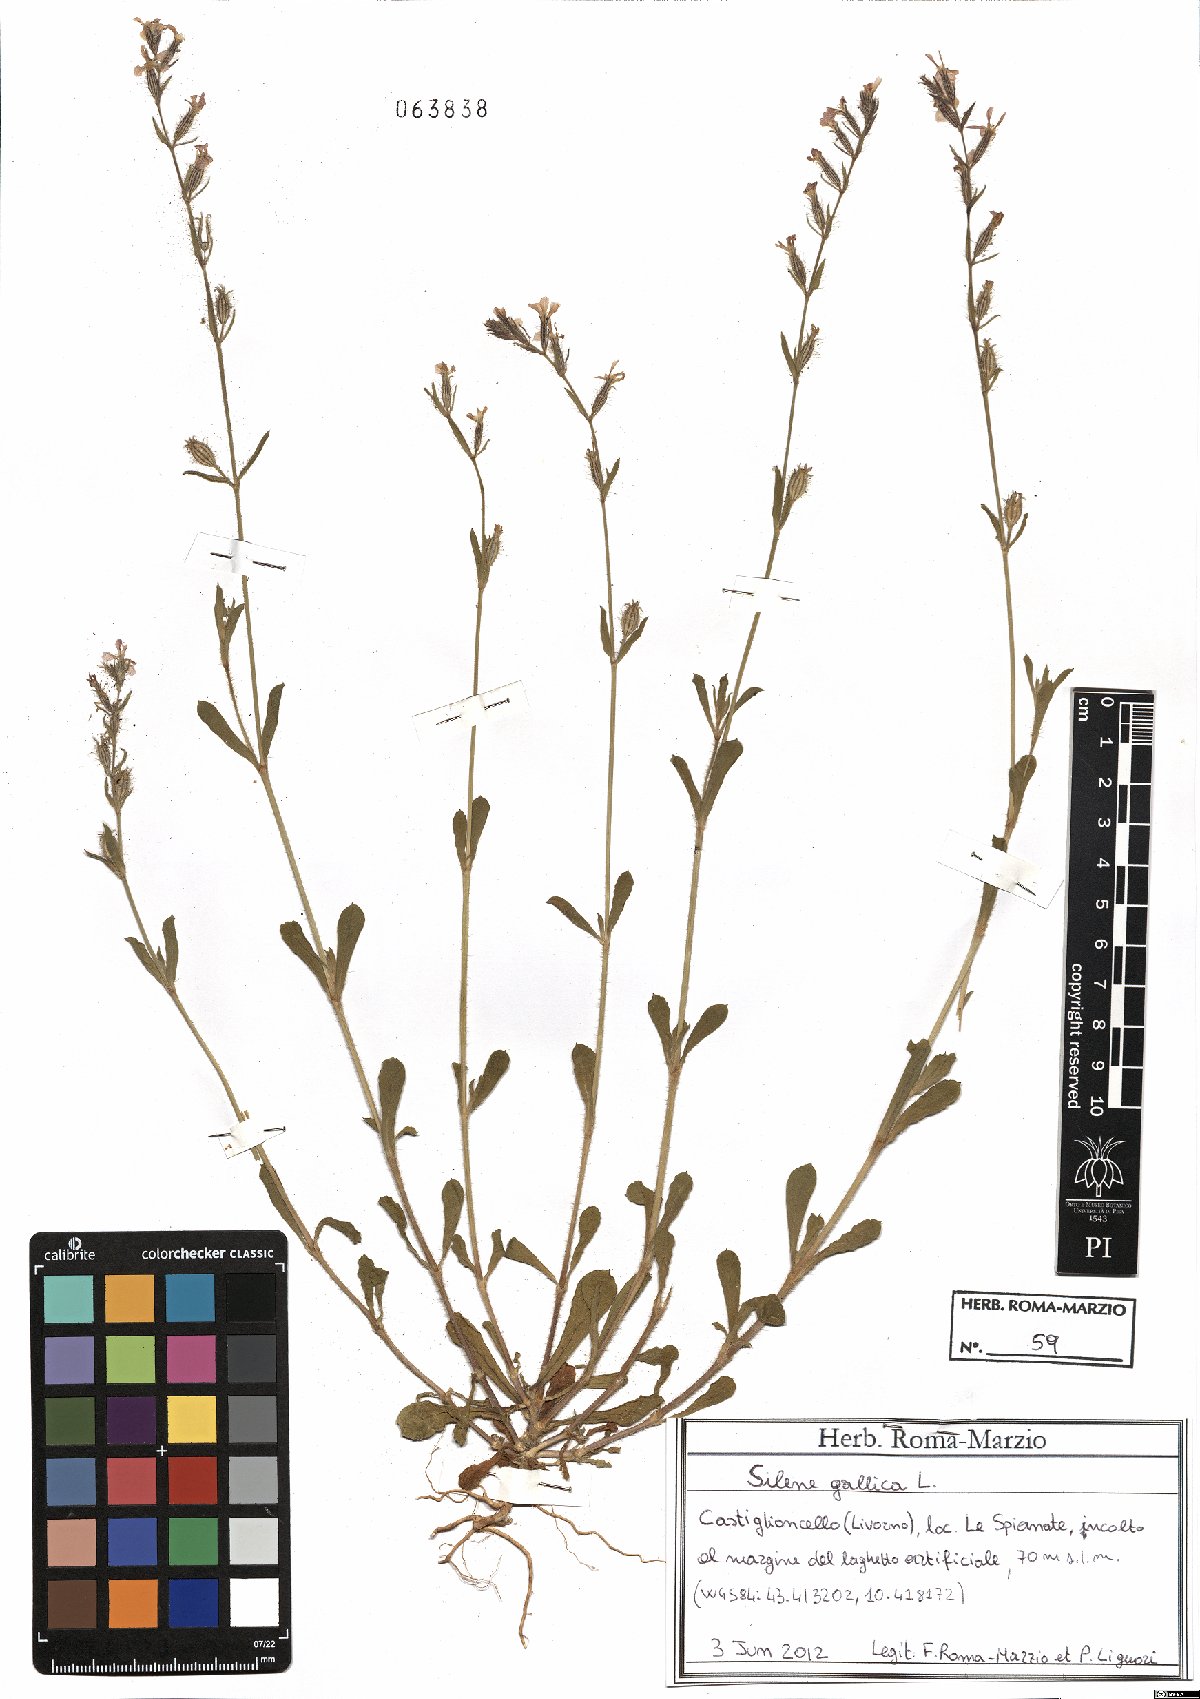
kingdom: Plantae
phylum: Tracheophyta
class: Magnoliopsida
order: Caryophyllales
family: Caryophyllaceae
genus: Silene
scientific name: Silene gallica
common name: Small-flowered catchfly
